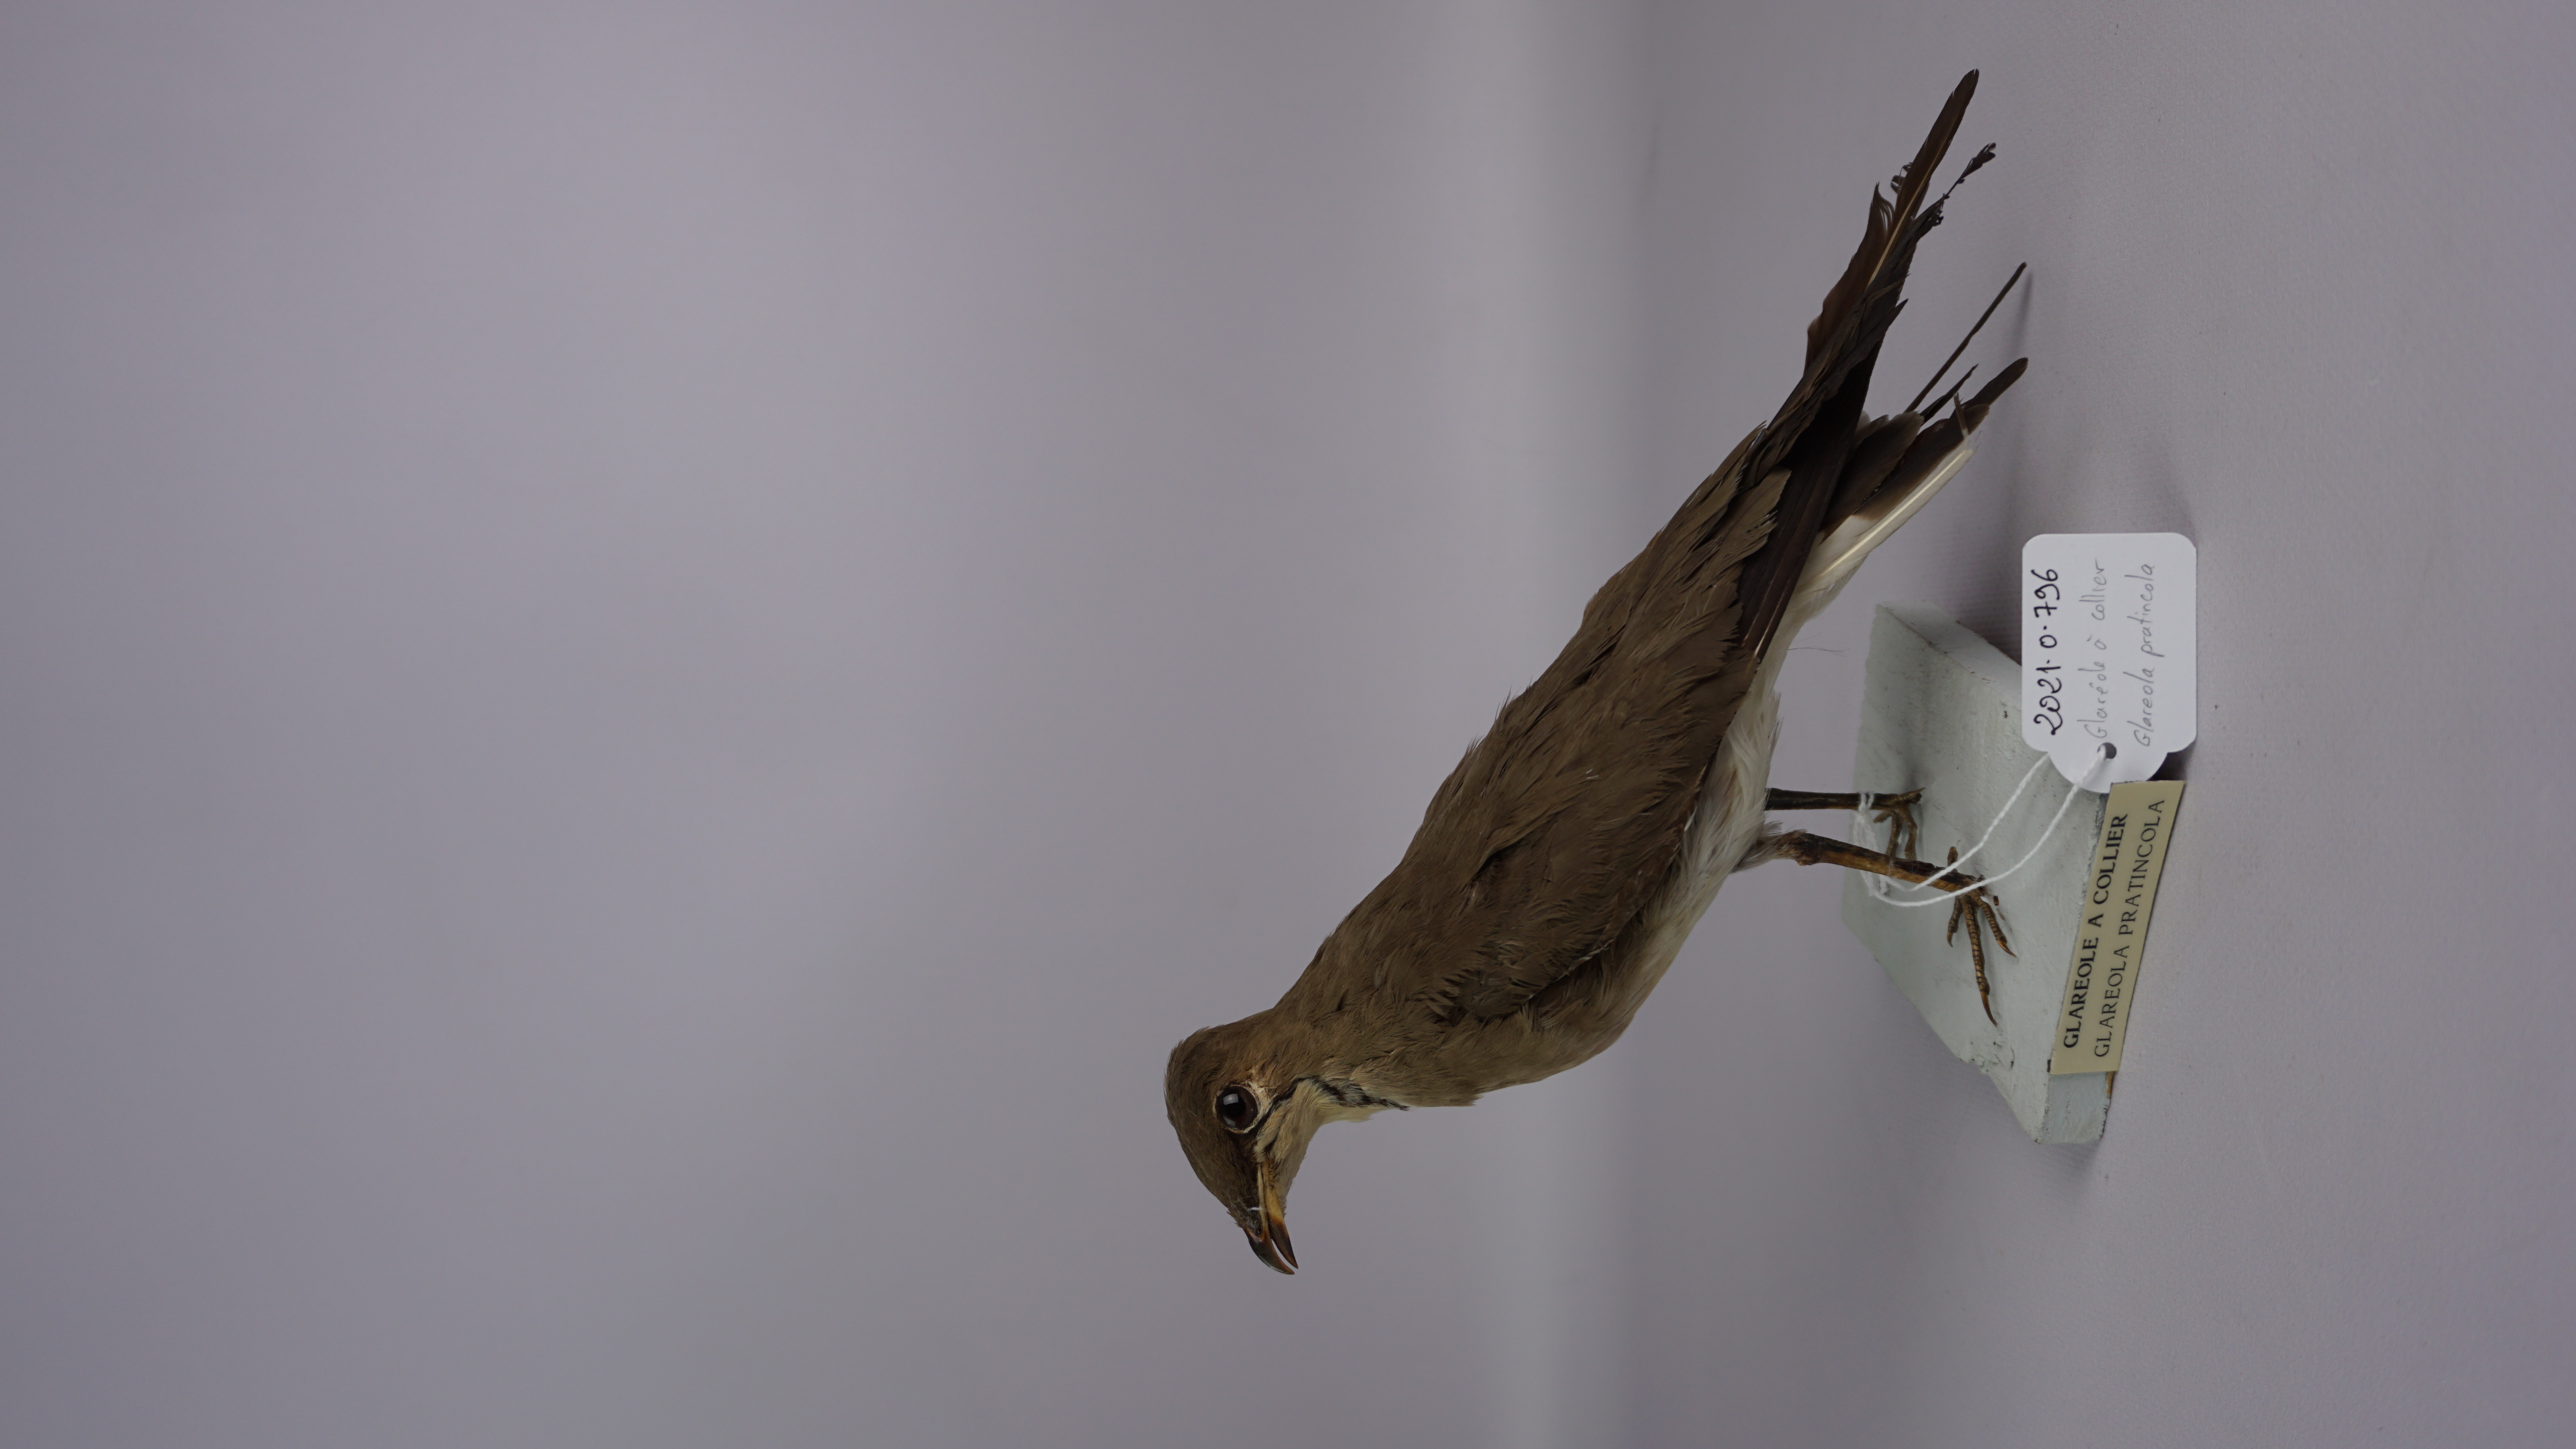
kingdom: Animalia
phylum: Chordata
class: Aves
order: Charadriiformes
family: Glareolidae
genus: Glareola
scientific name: Glareola pratincola
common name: Collared pratincole
